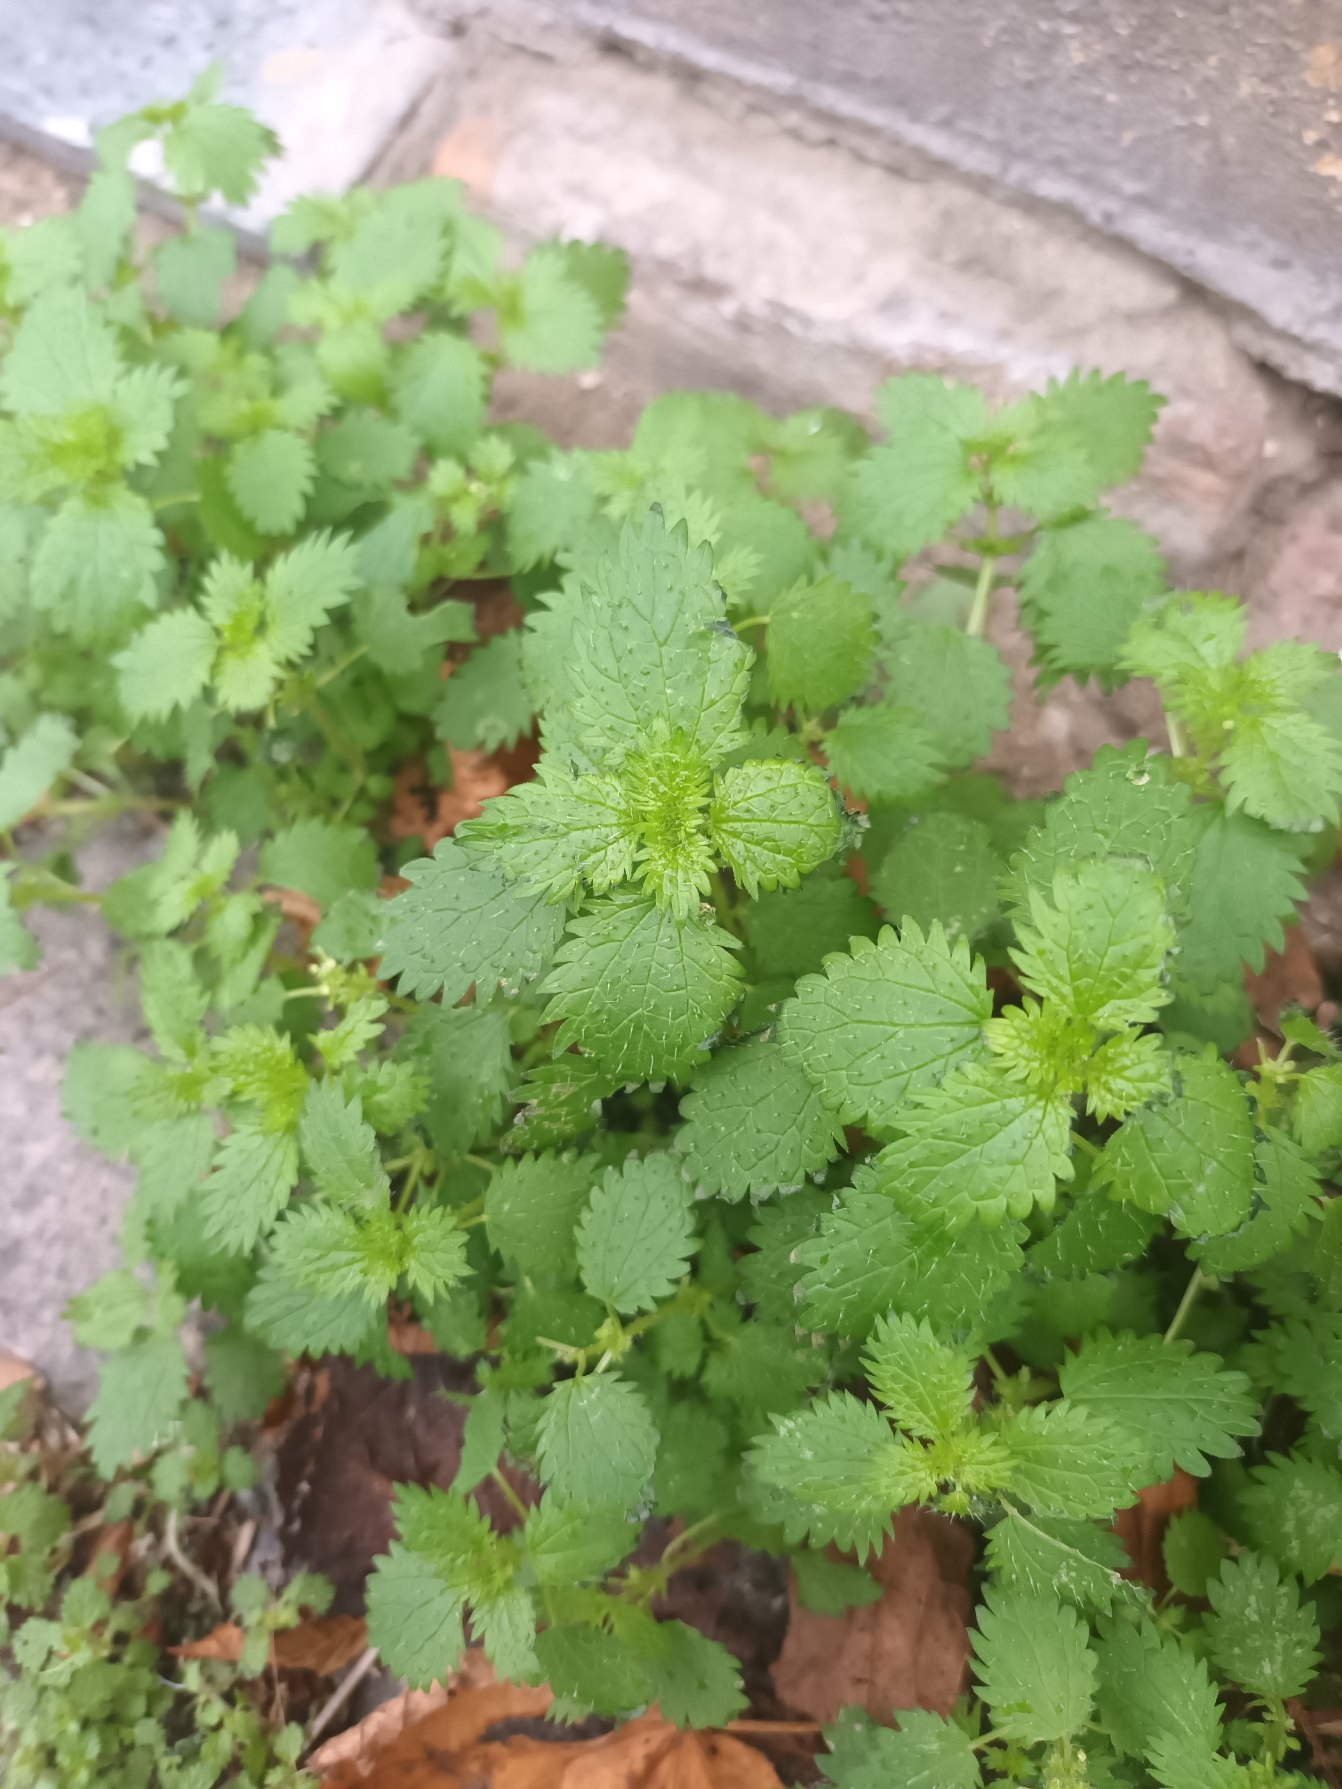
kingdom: Plantae
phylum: Tracheophyta
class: Magnoliopsida
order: Rosales
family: Urticaceae
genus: Urtica
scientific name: Urtica urens
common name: Liden nælde
